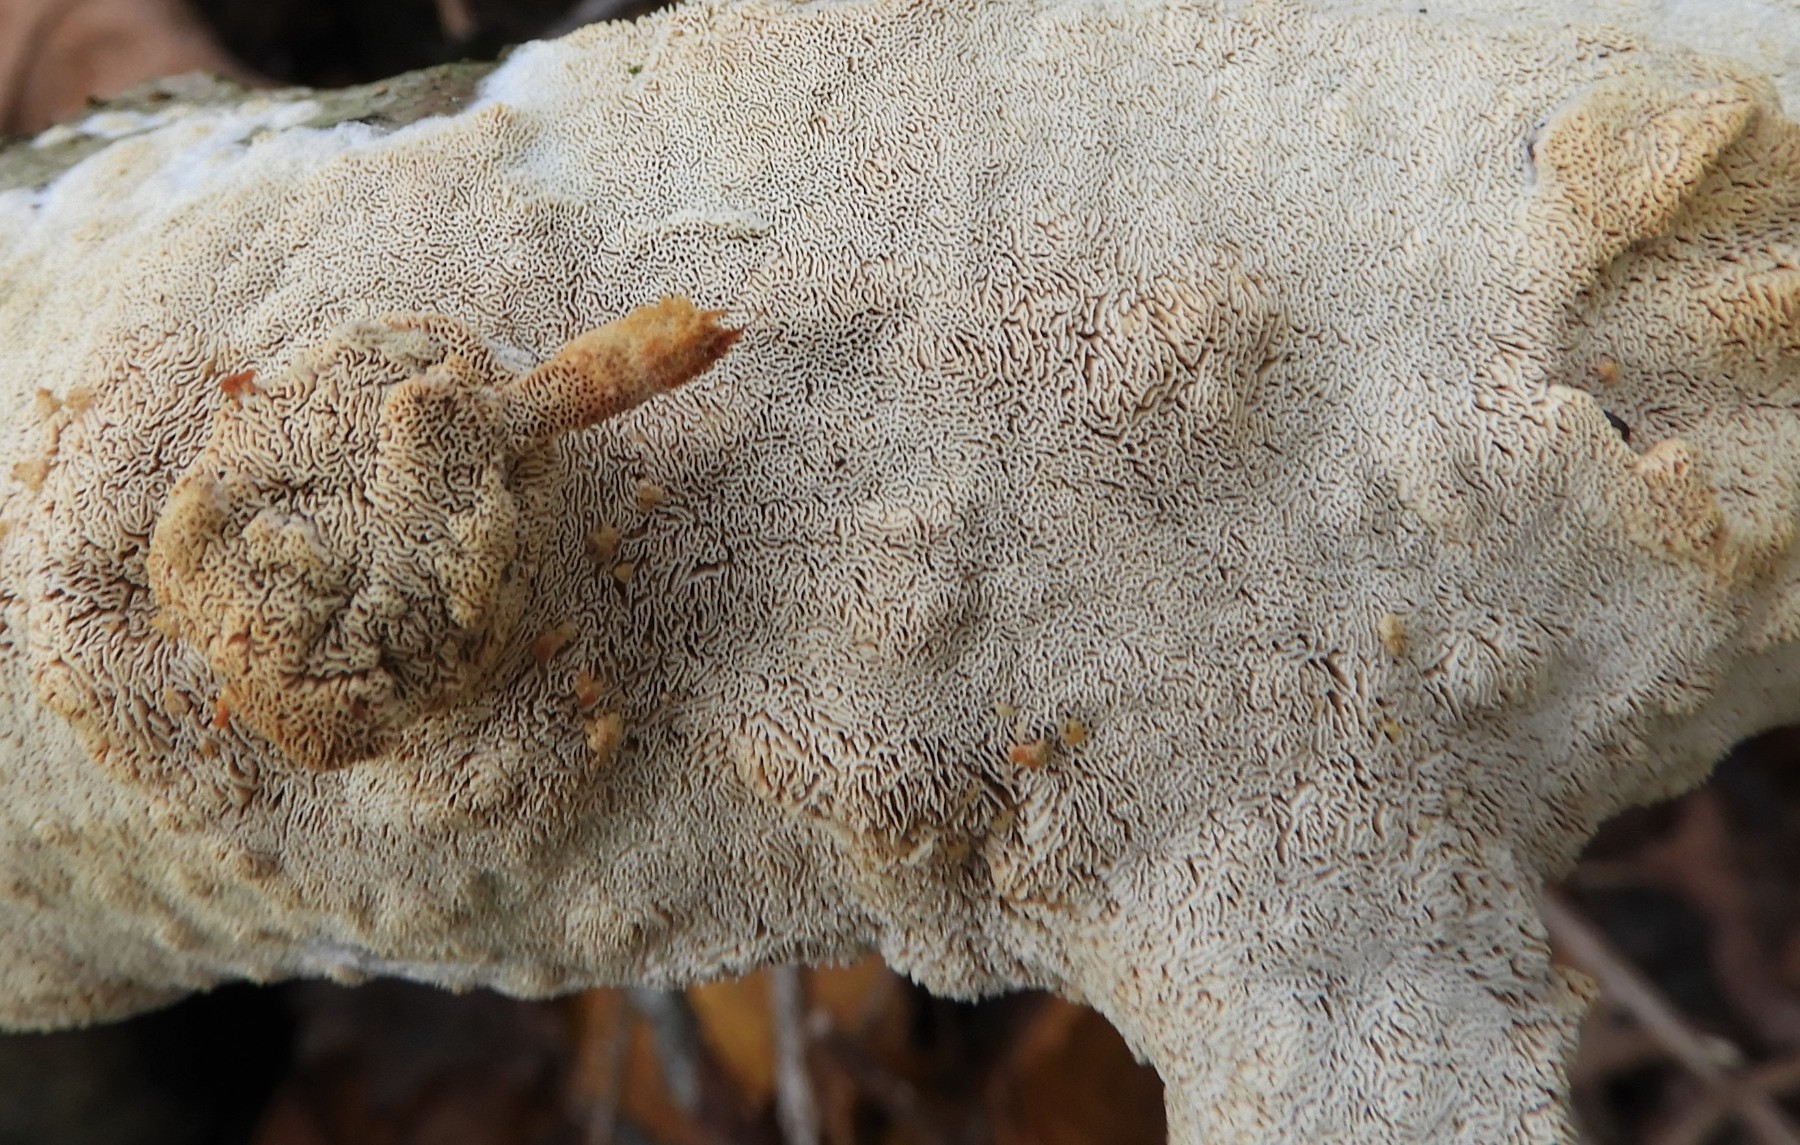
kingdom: Fungi
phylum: Basidiomycota
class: Agaricomycetes
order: Hymenochaetales
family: Schizoporaceae
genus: Xylodon
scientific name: Xylodon subtropicus
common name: labyrint-tandsvamp
